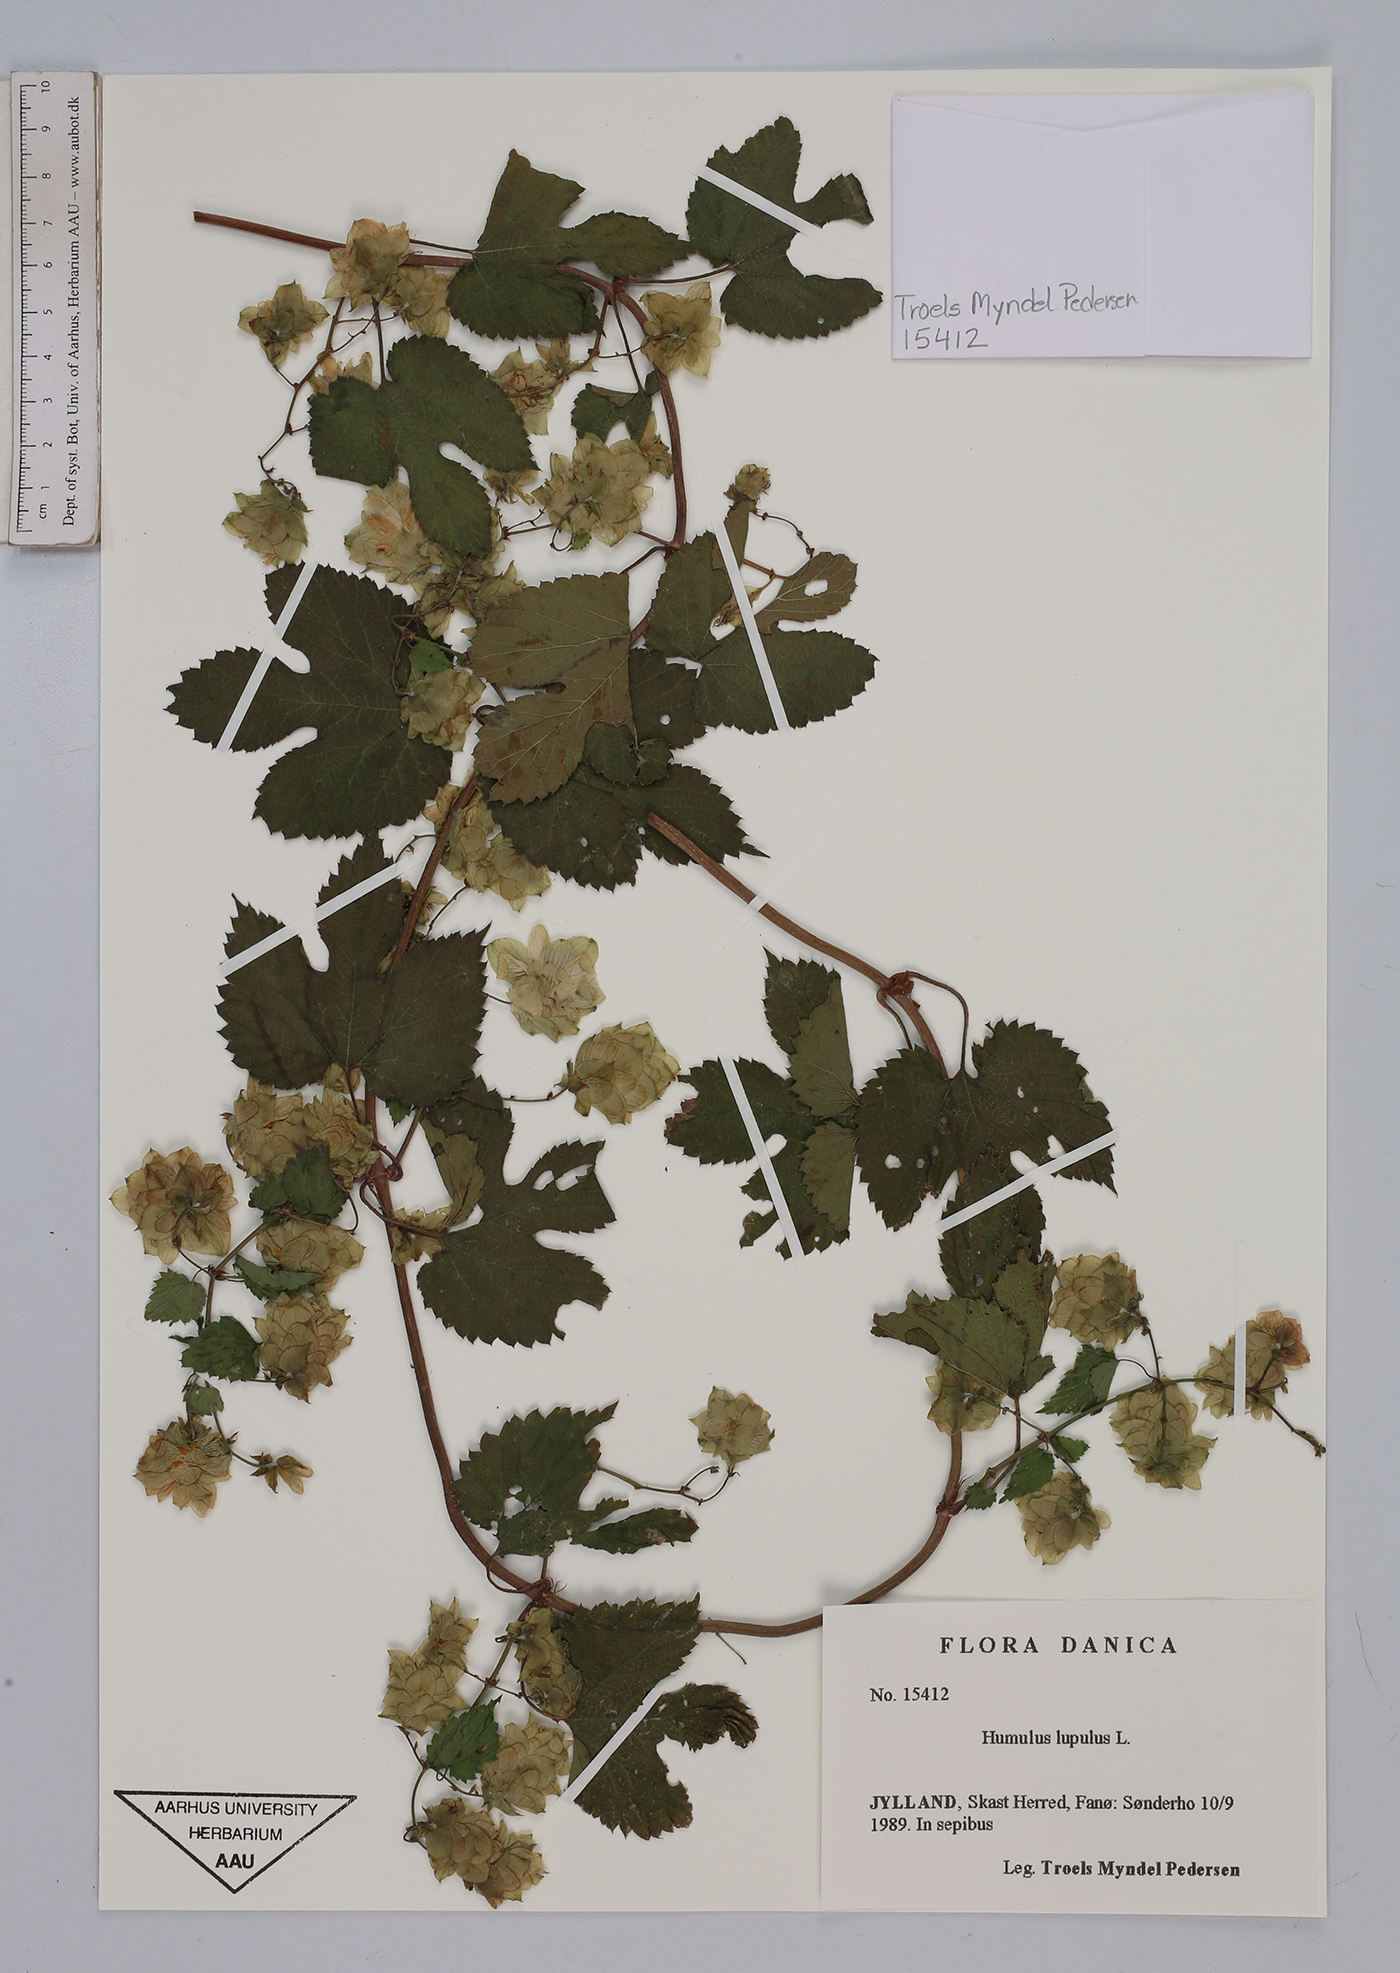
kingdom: Plantae
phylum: Tracheophyta
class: Magnoliopsida
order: Rosales
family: Cannabaceae
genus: Humulus
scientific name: Humulus lupulus
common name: Hop
